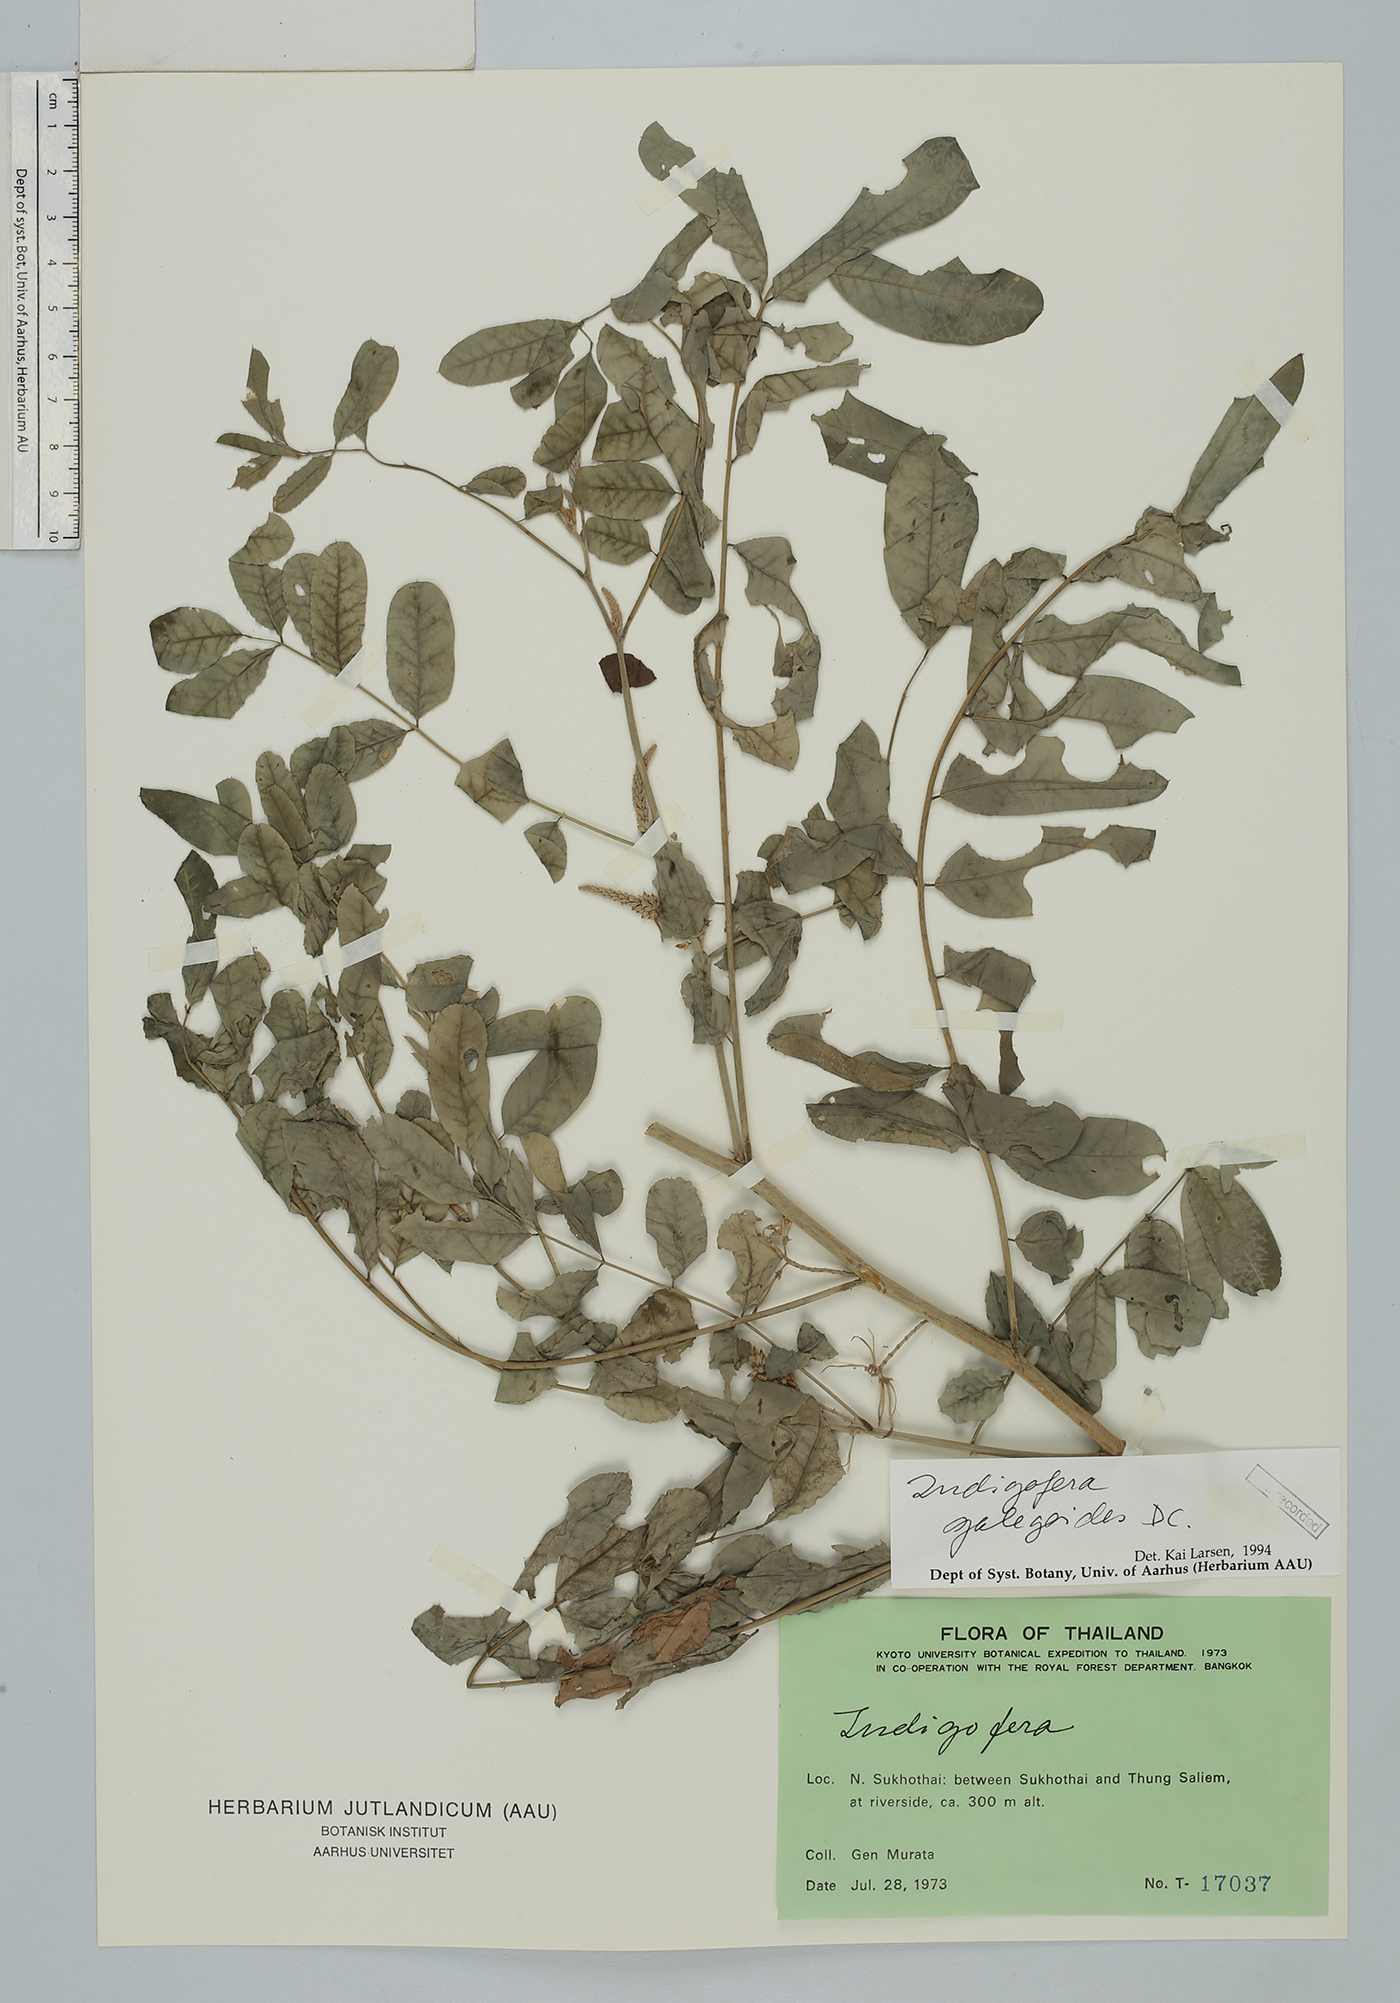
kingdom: Plantae
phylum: Tracheophyta
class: Magnoliopsida
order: Fabales
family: Fabaceae
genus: Indigofera
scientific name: Indigofera galegoides
